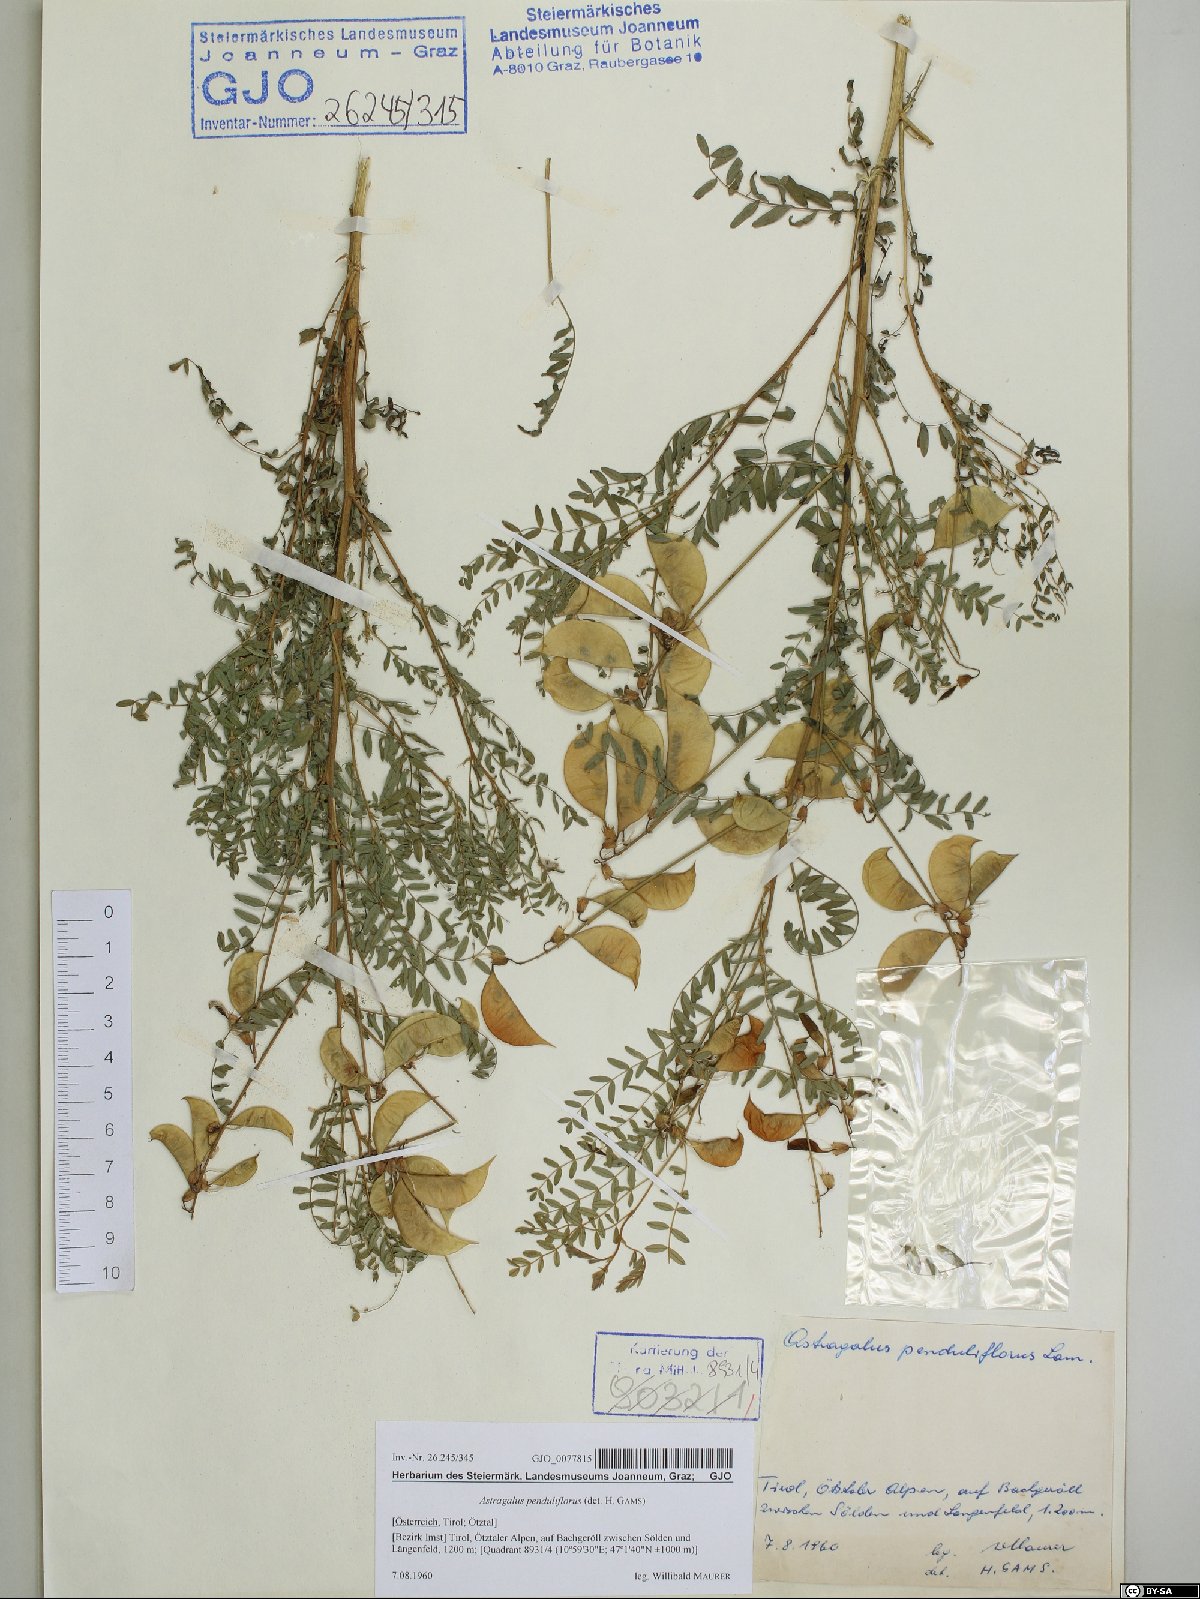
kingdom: Plantae
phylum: Tracheophyta
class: Magnoliopsida
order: Fabales
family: Fabaceae
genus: Astragalus
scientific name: Astragalus penduliflorus
